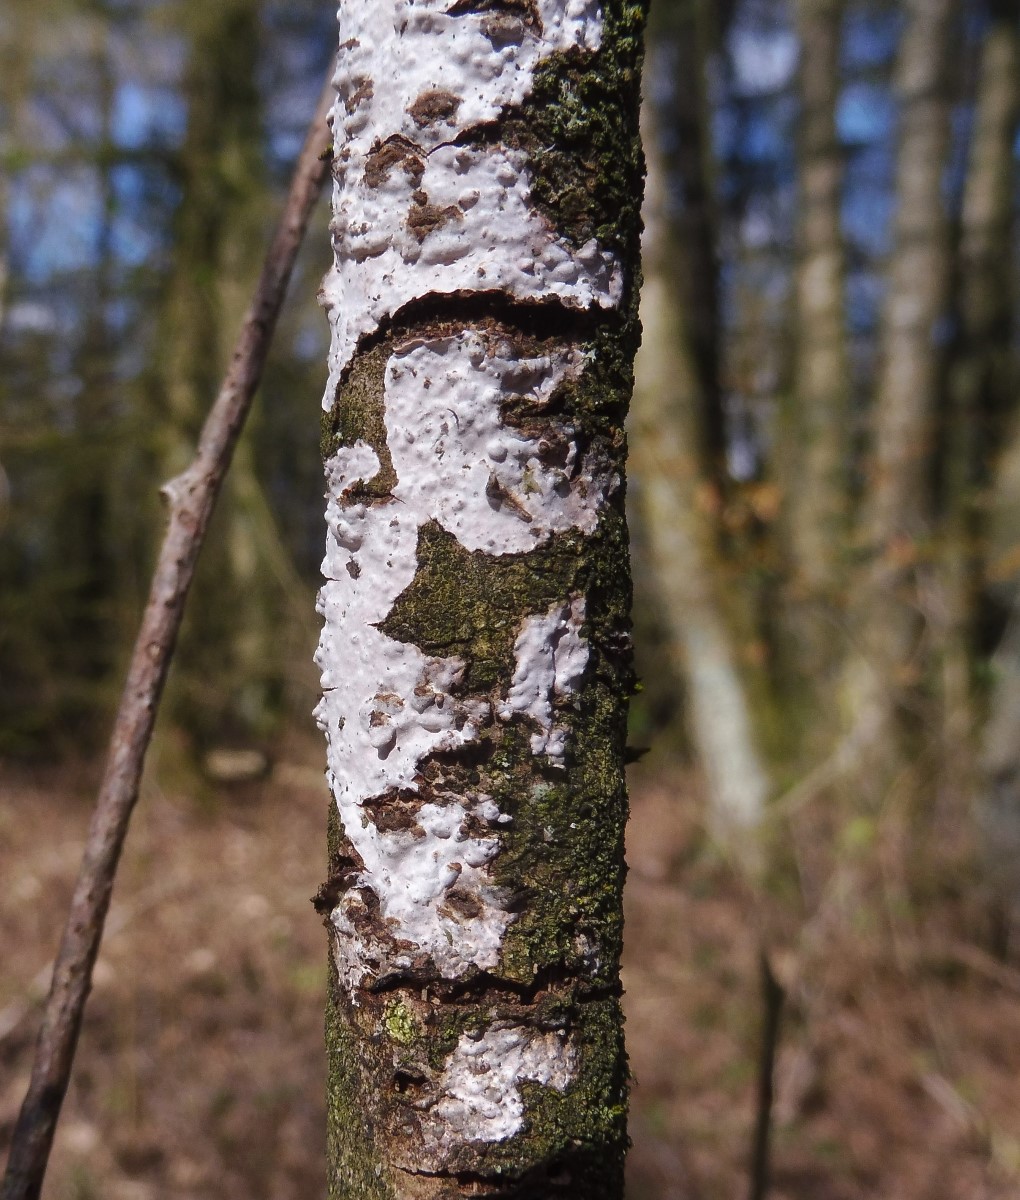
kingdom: Fungi
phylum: Basidiomycota
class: Agaricomycetes
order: Corticiales
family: Corticiaceae
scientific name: Corticiaceae
